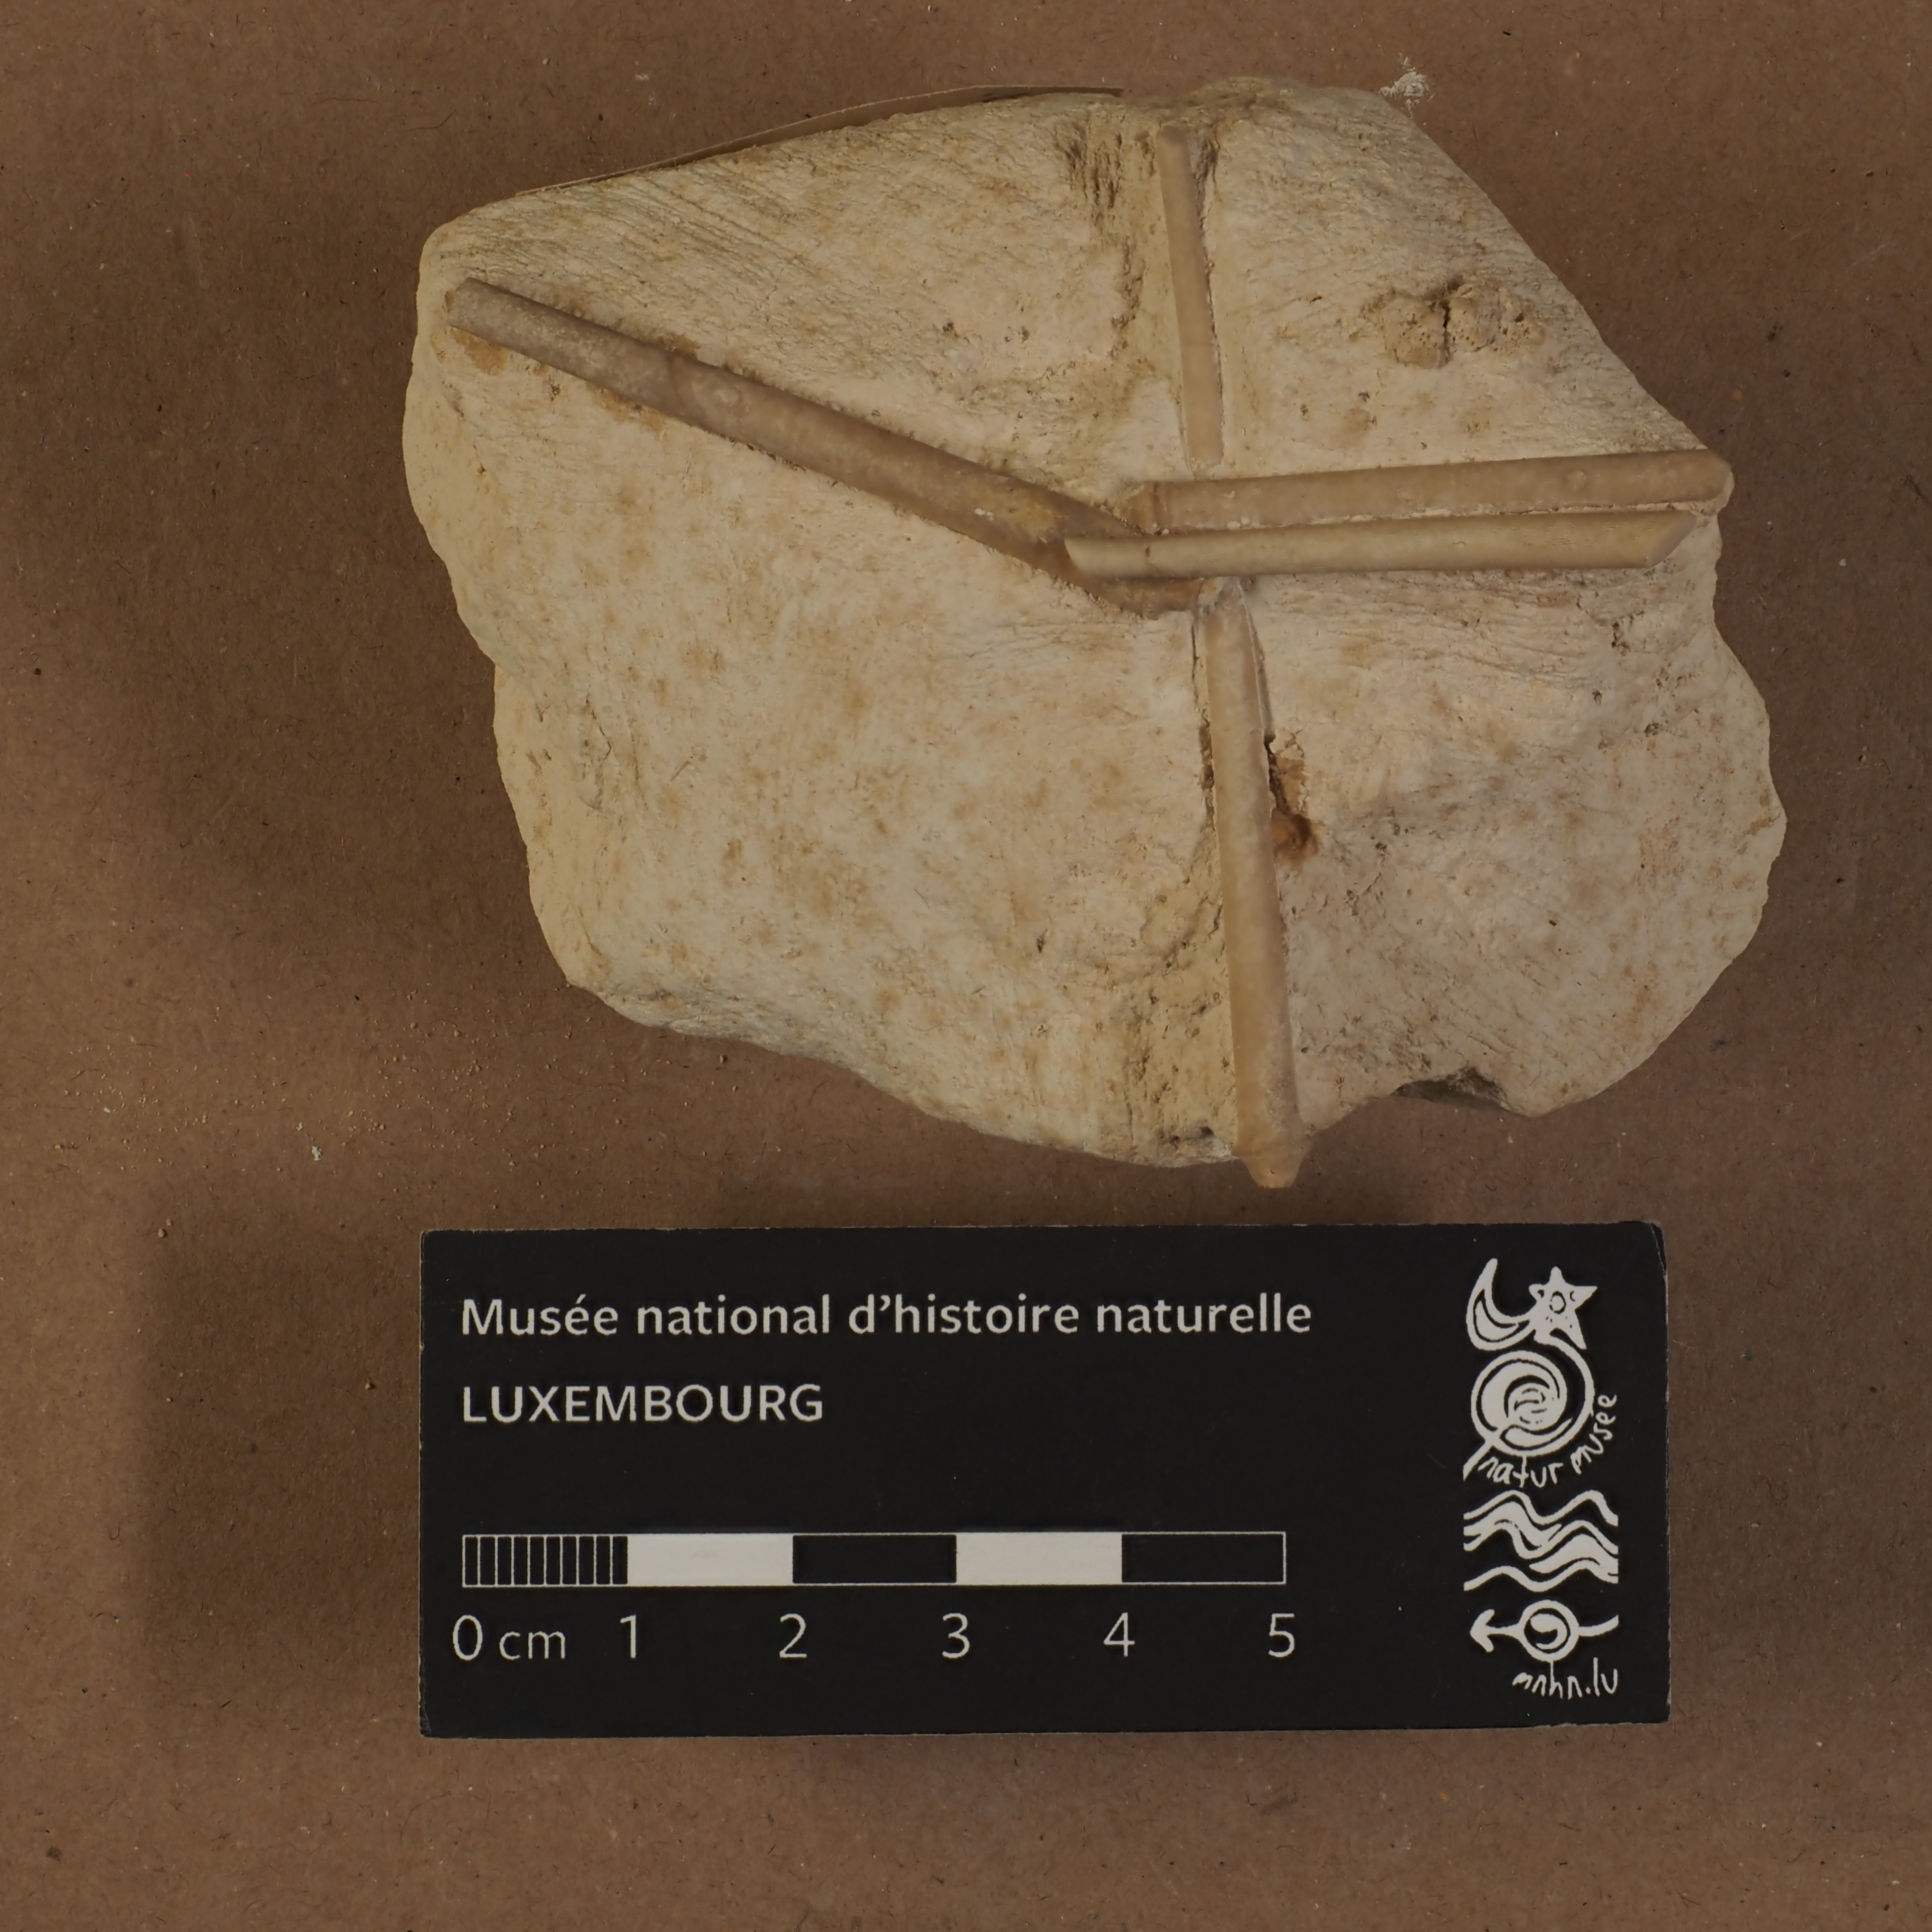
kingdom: Animalia
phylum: Echinodermata
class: Echinoidea
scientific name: Echinoidea
